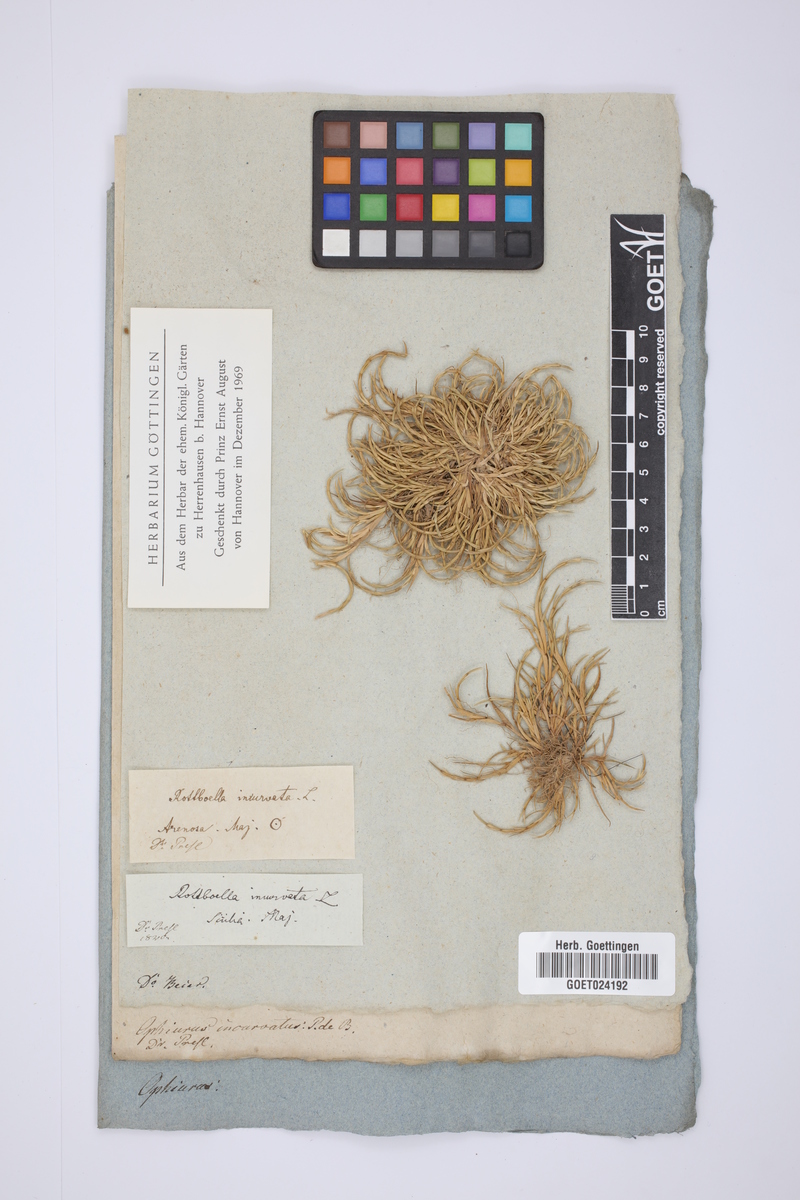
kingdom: Plantae
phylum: Tracheophyta
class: Liliopsida
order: Poales
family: Poaceae
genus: Parapholis
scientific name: Parapholis incurva
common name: Curved sicklegrass
